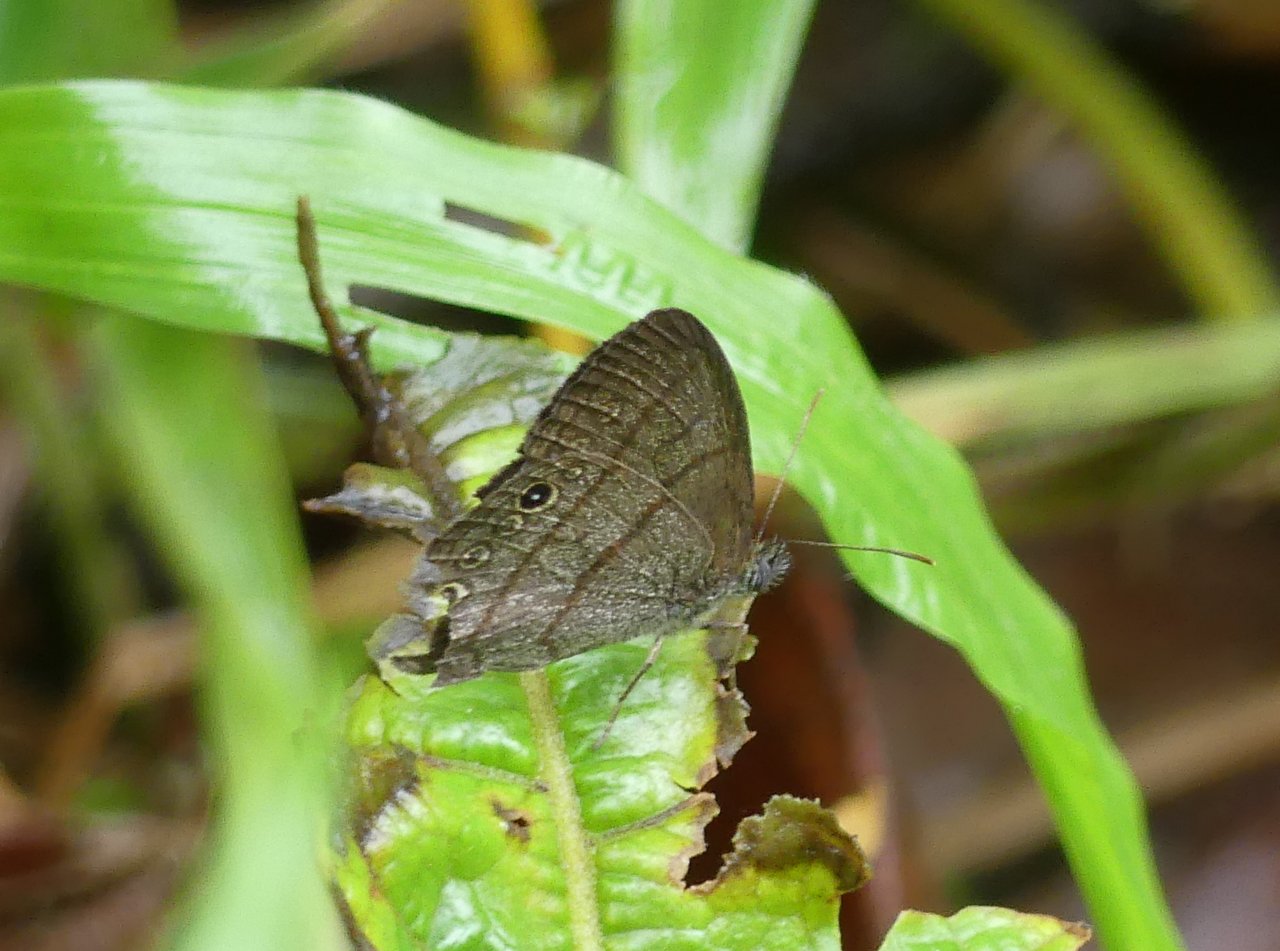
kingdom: Animalia
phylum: Arthropoda
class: Insecta
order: Lepidoptera
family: Nymphalidae
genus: Hermeuptychia
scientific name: Hermeuptychia hermes
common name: Hermes Satyr
